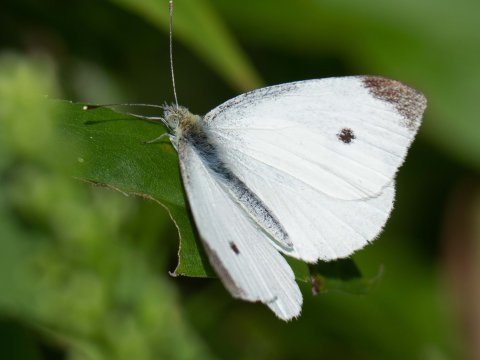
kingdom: Animalia
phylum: Arthropoda
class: Insecta
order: Lepidoptera
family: Pieridae
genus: Pieris
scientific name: Pieris rapae
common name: Cabbage White
